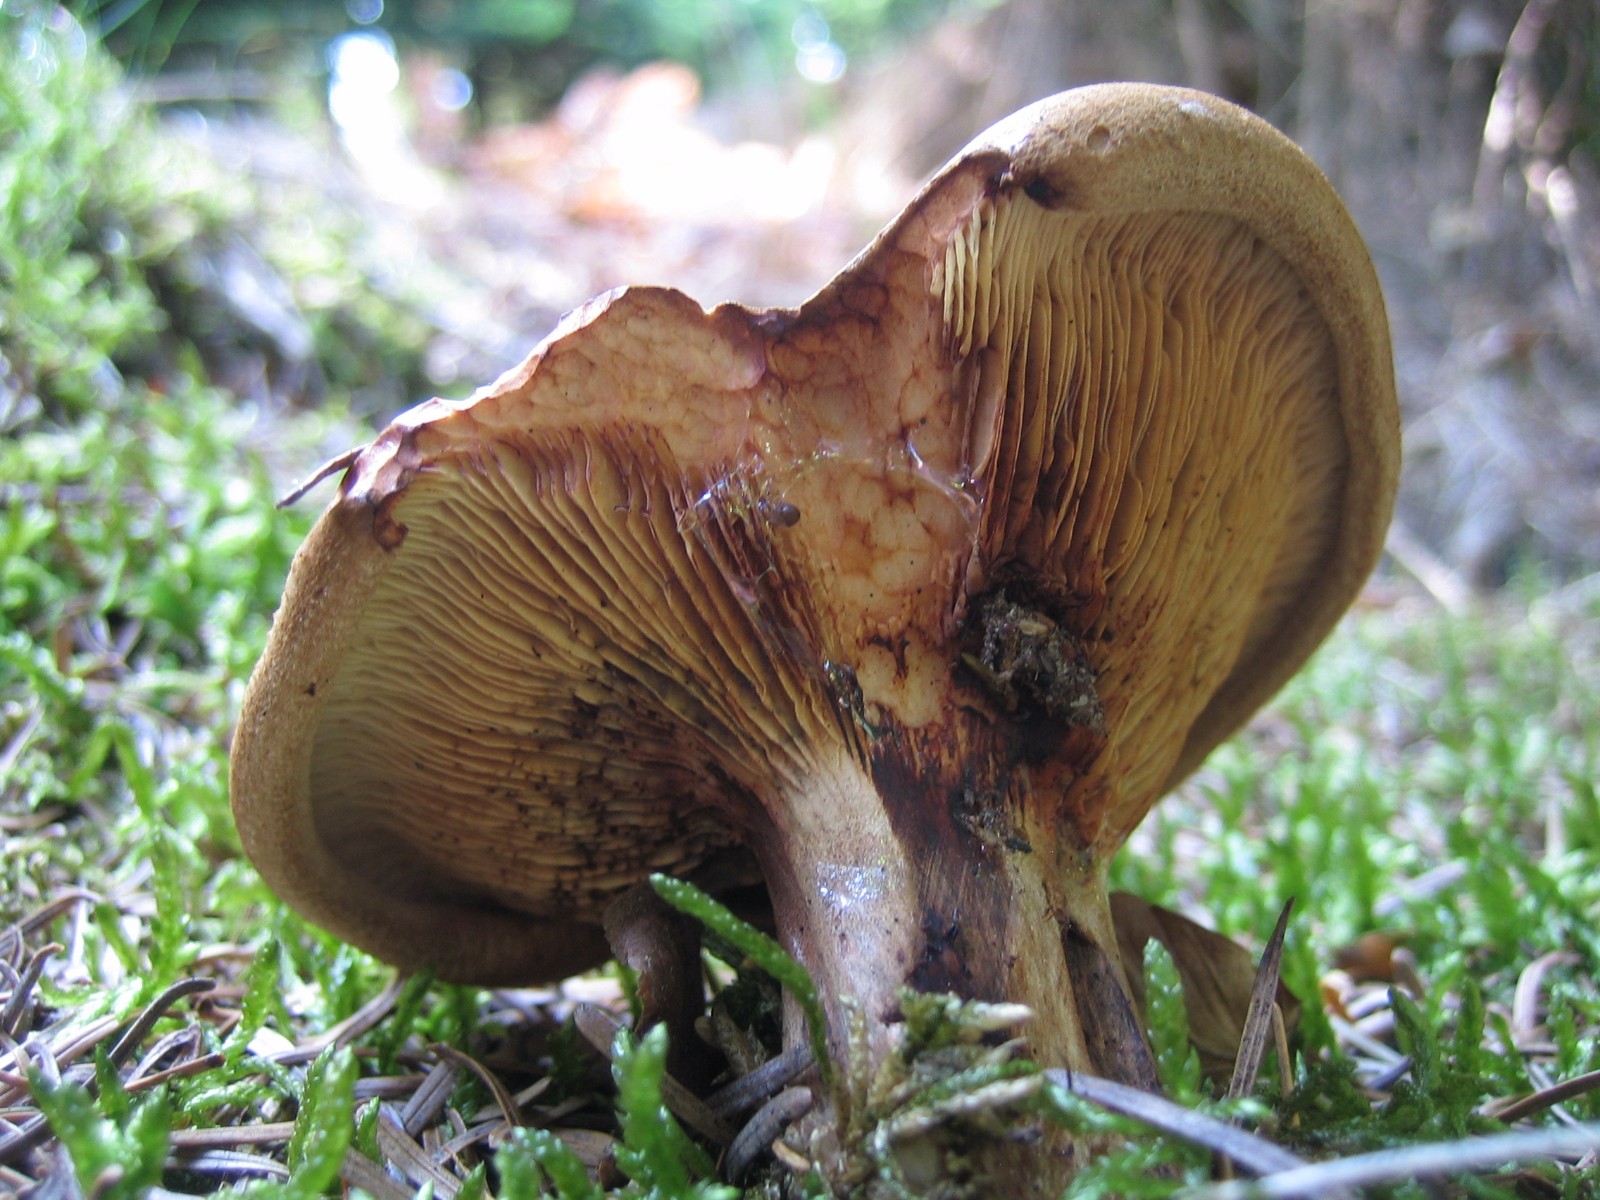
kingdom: Fungi
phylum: Basidiomycota
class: Agaricomycetes
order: Boletales
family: Paxillaceae
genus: Paxillus
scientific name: Paxillus involutus
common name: almindelig netbladhat
